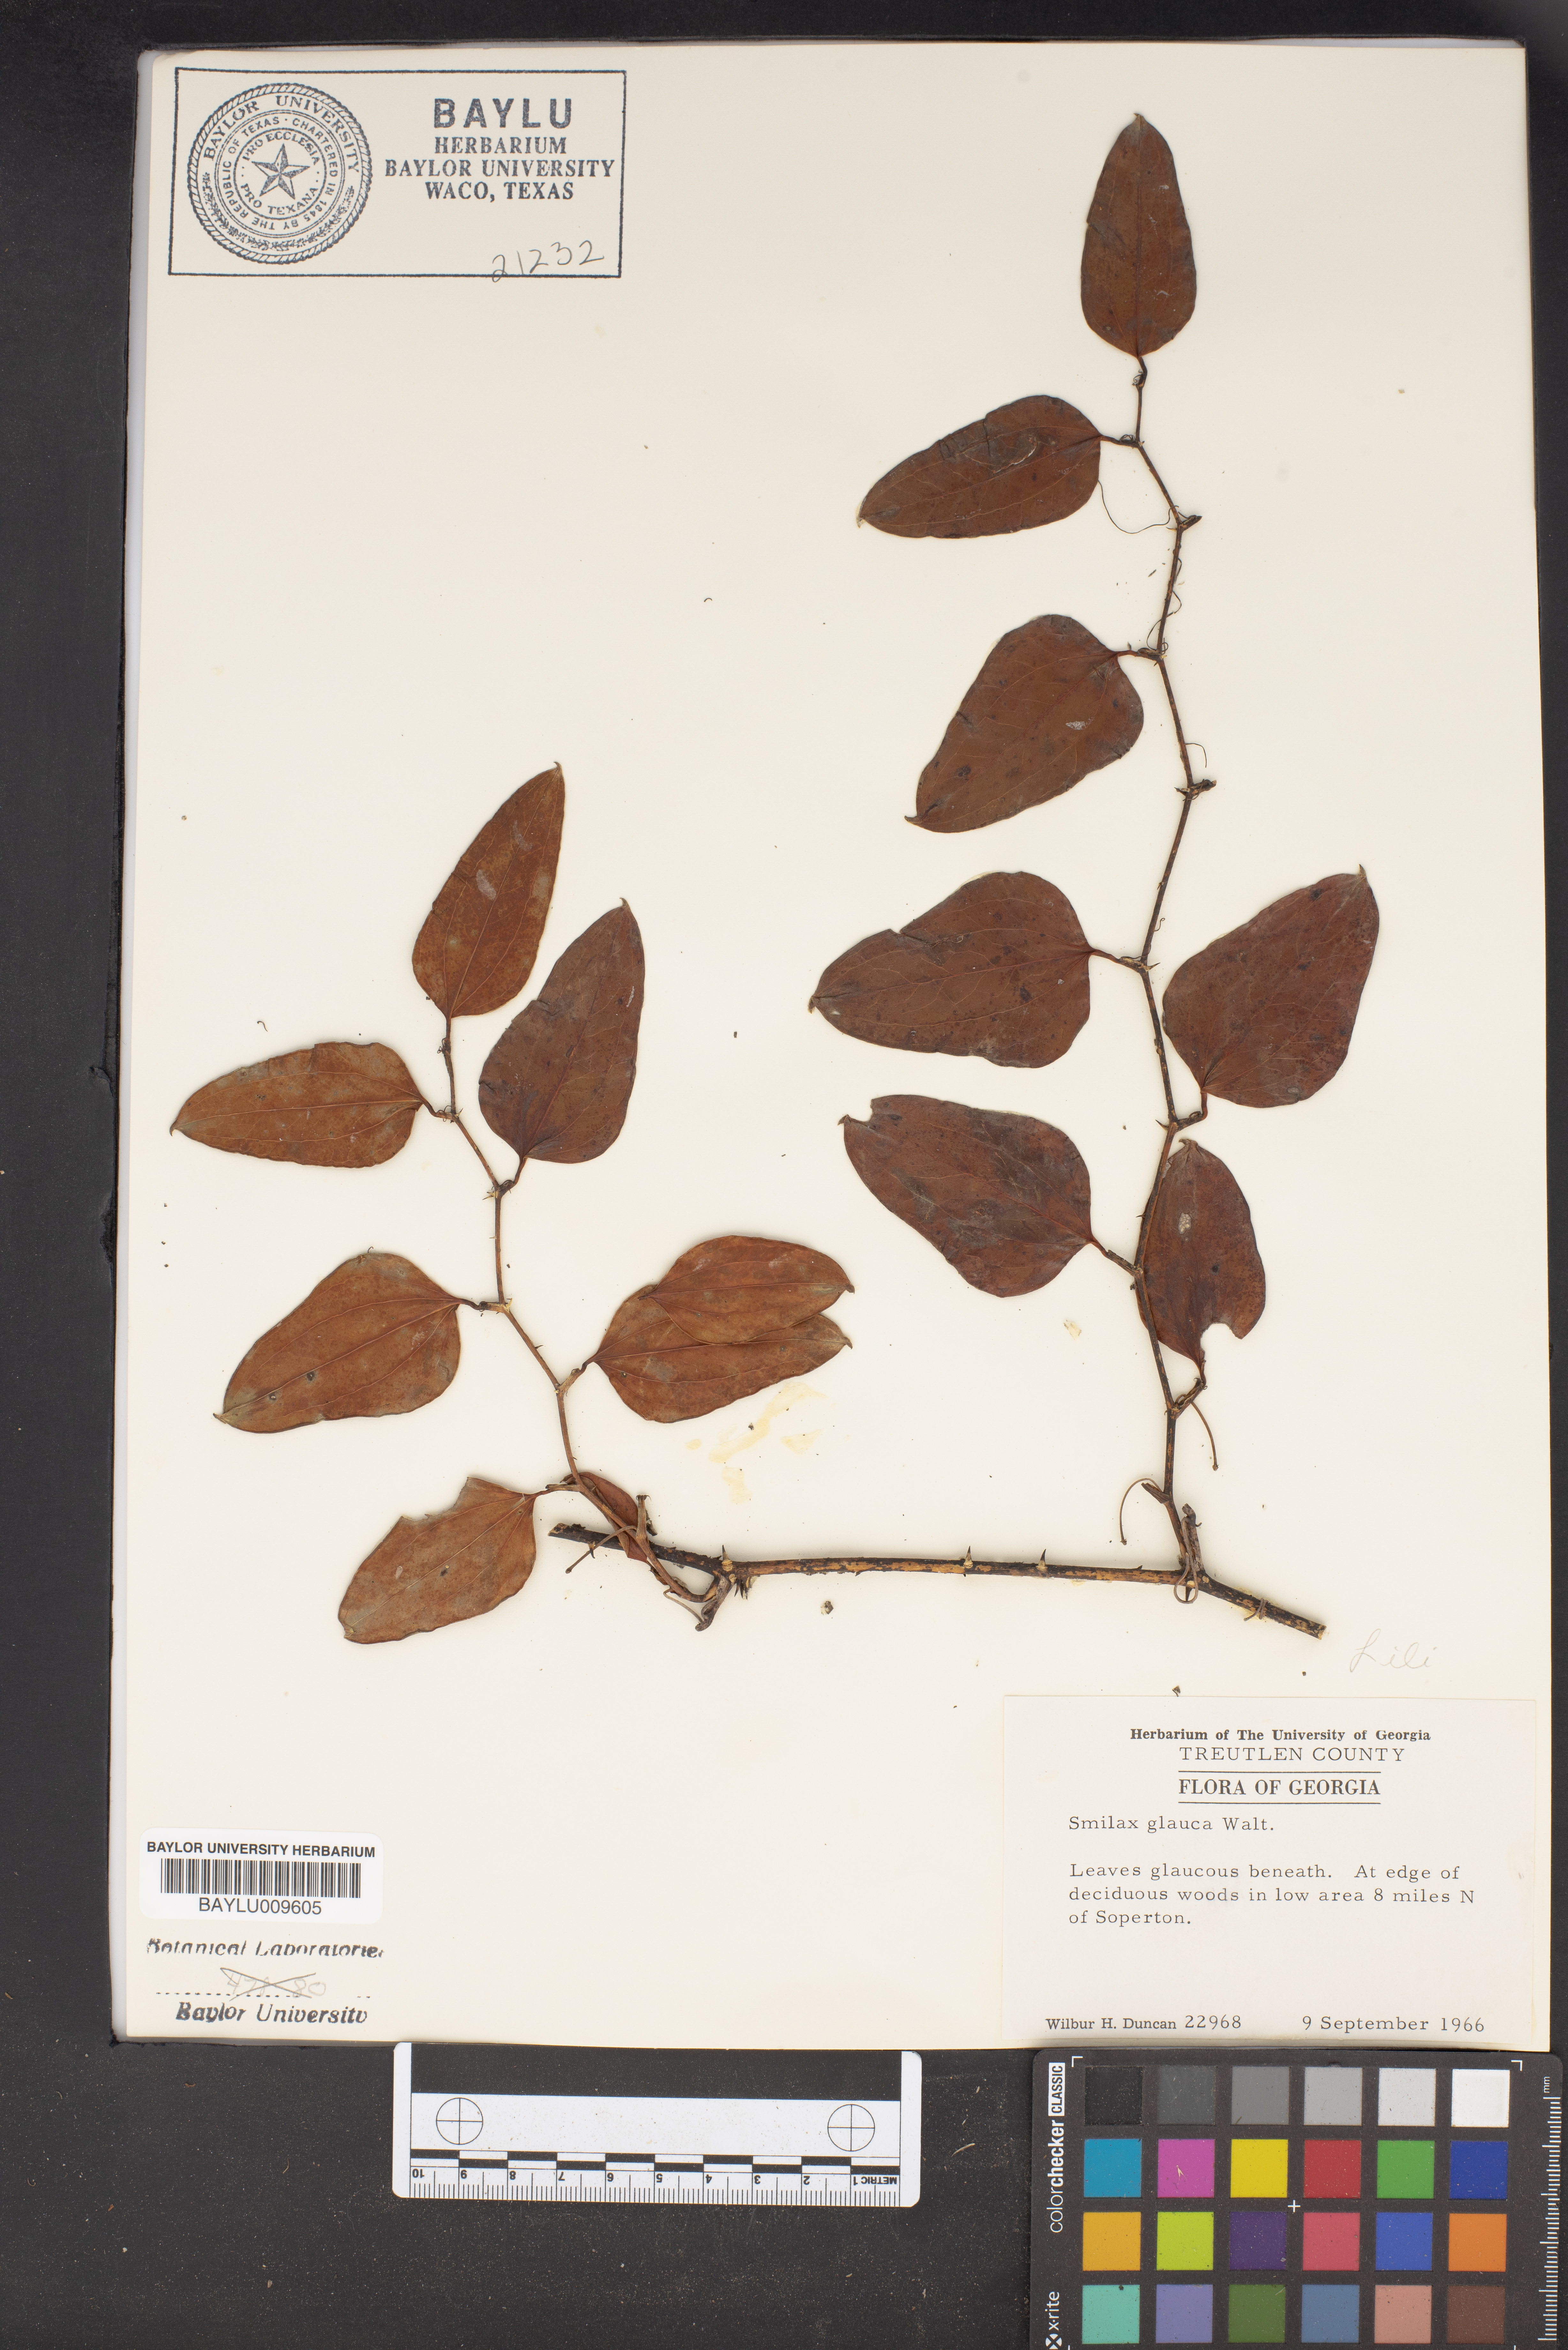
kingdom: Plantae
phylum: Tracheophyta
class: Liliopsida
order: Liliales
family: Smilacaceae
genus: Smilax
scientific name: Smilax glauca
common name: Cat greenbrier
